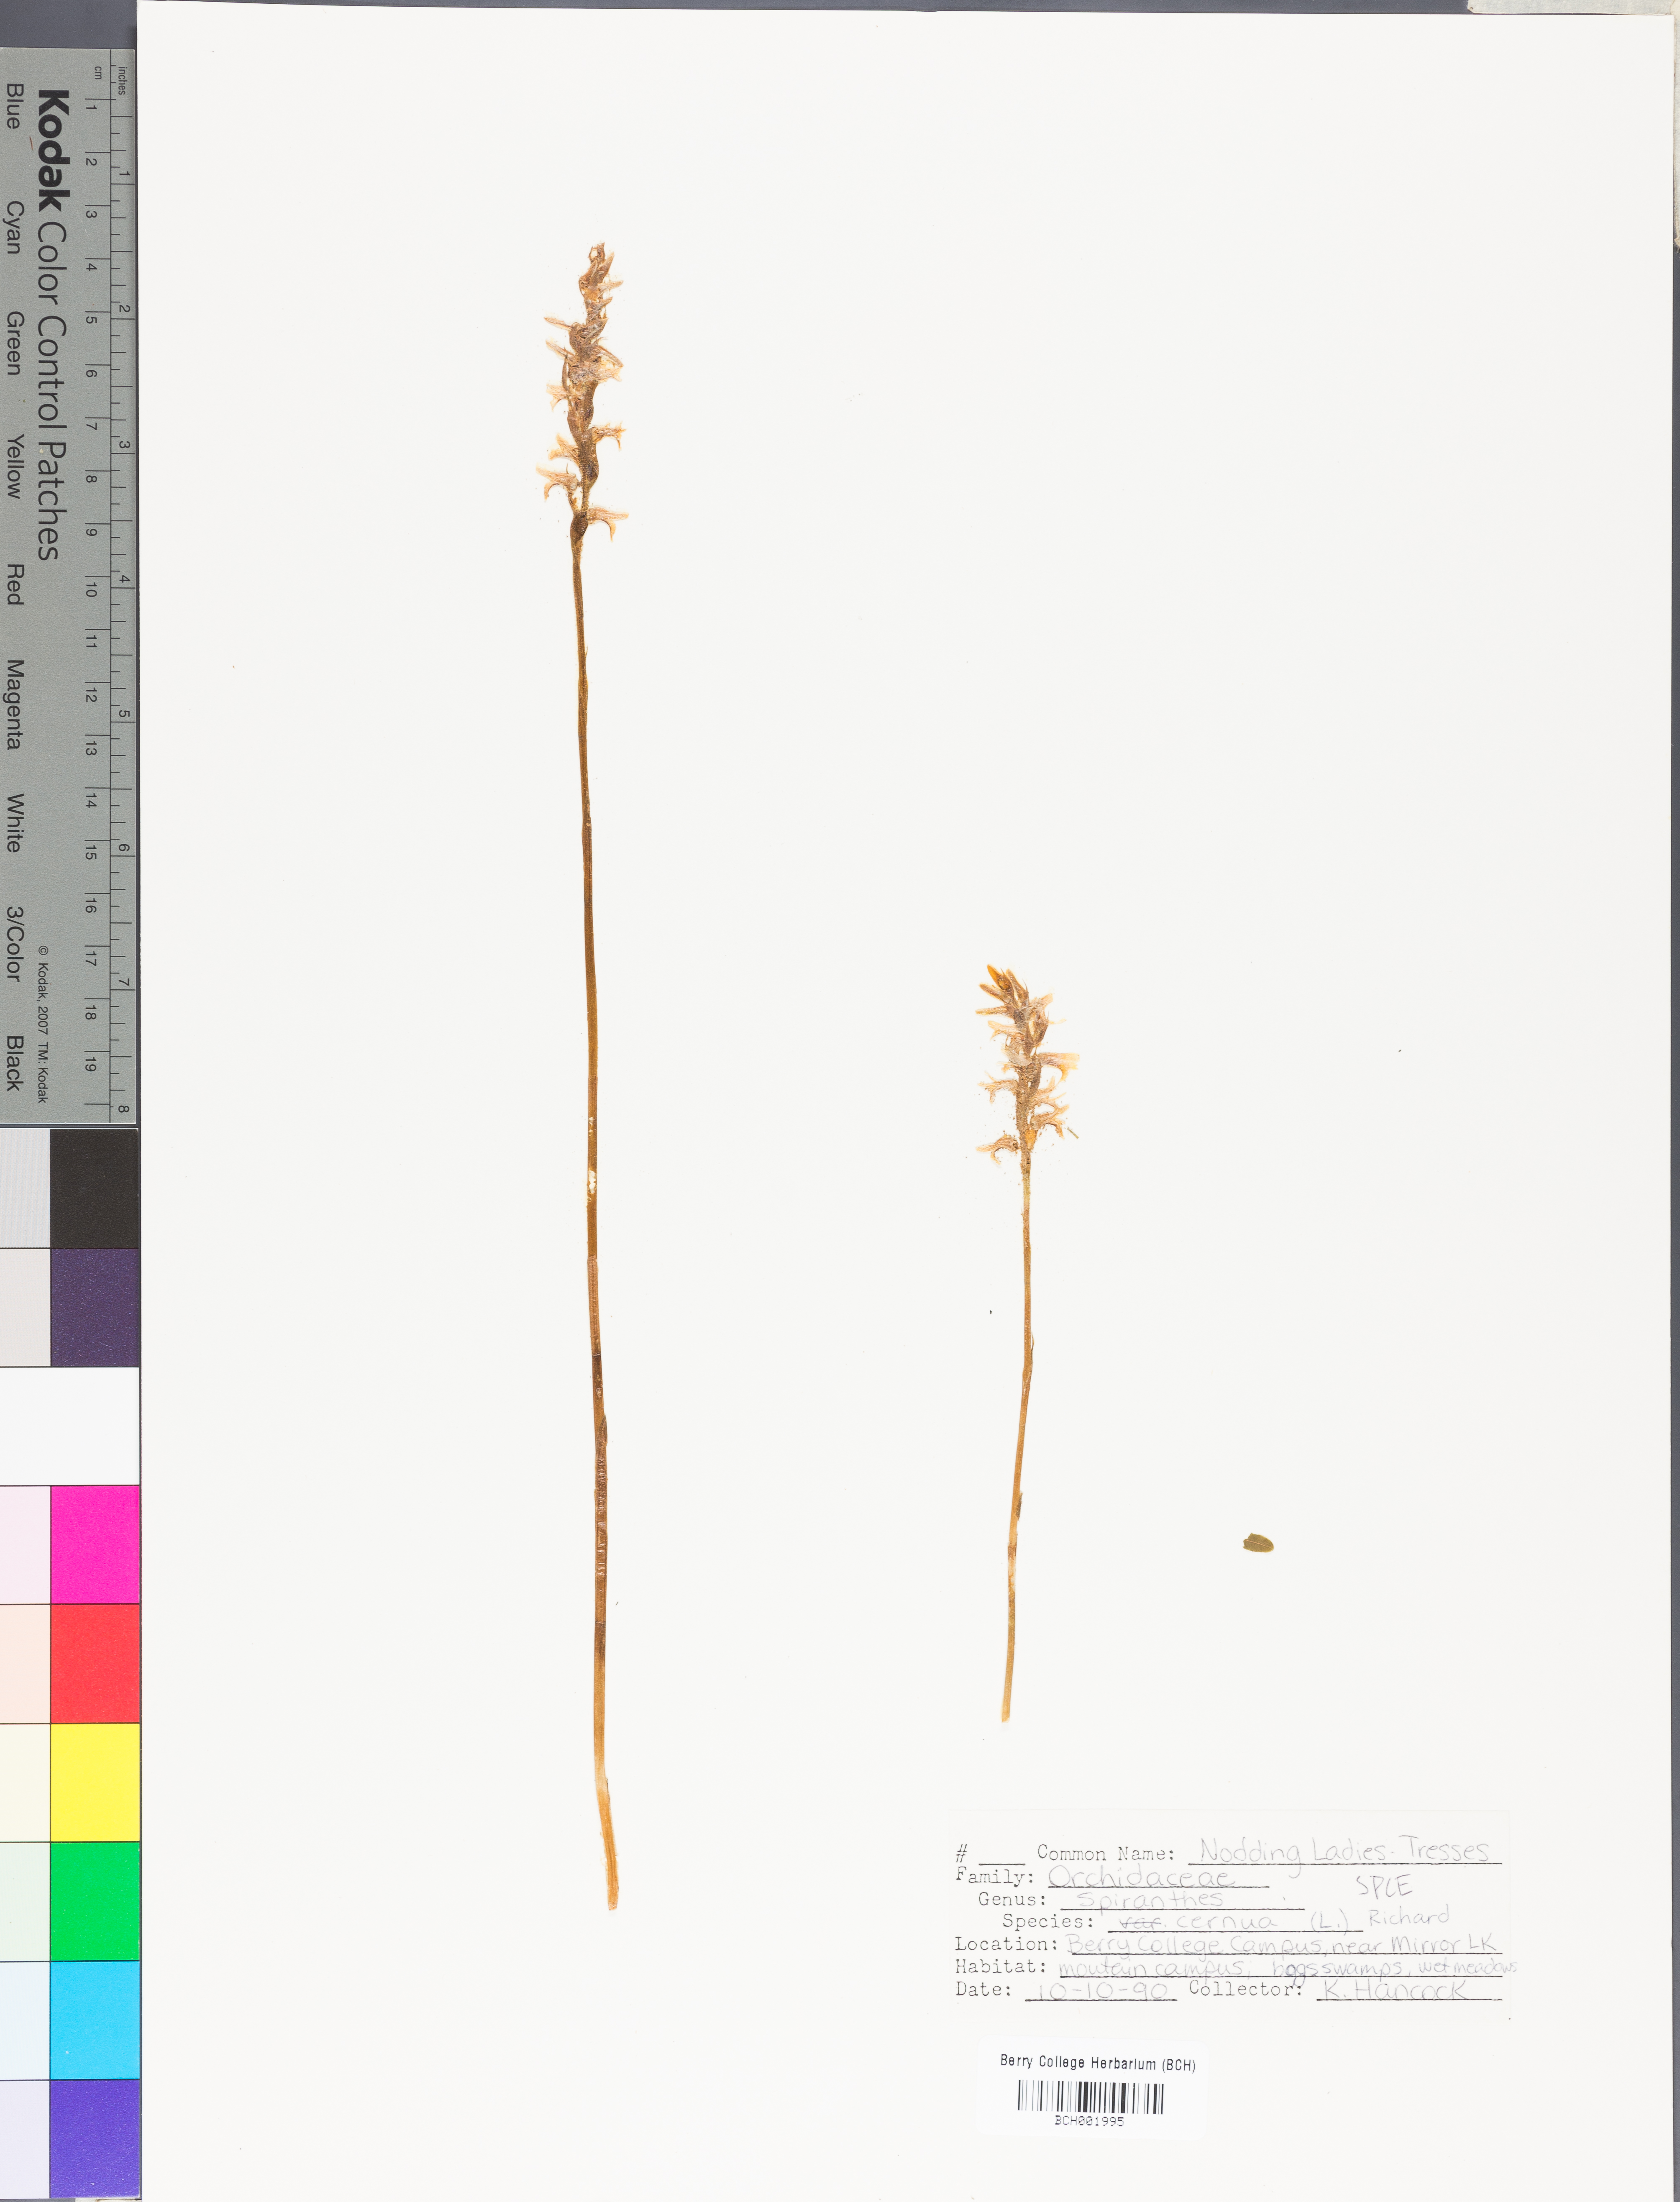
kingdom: Plantae
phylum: Tracheophyta
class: Liliopsida
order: Asparagales
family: Orchidaceae
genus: Spiranthes
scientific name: Spiranthes cernua
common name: Dropping ladies'-tresses
